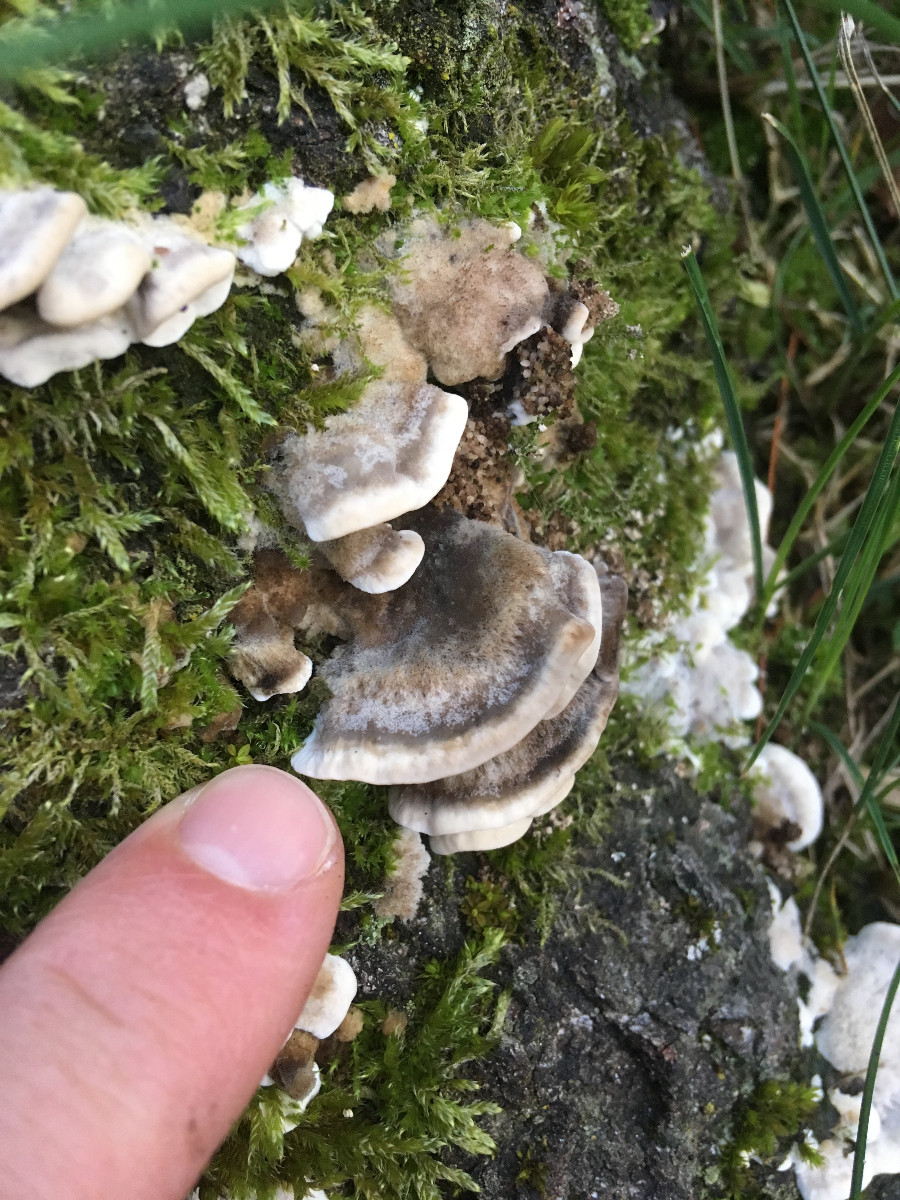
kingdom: Fungi
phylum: Basidiomycota
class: Agaricomycetes
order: Polyporales
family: Phanerochaetaceae
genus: Bjerkandera
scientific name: Bjerkandera adusta
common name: sveden sodporesvamp
